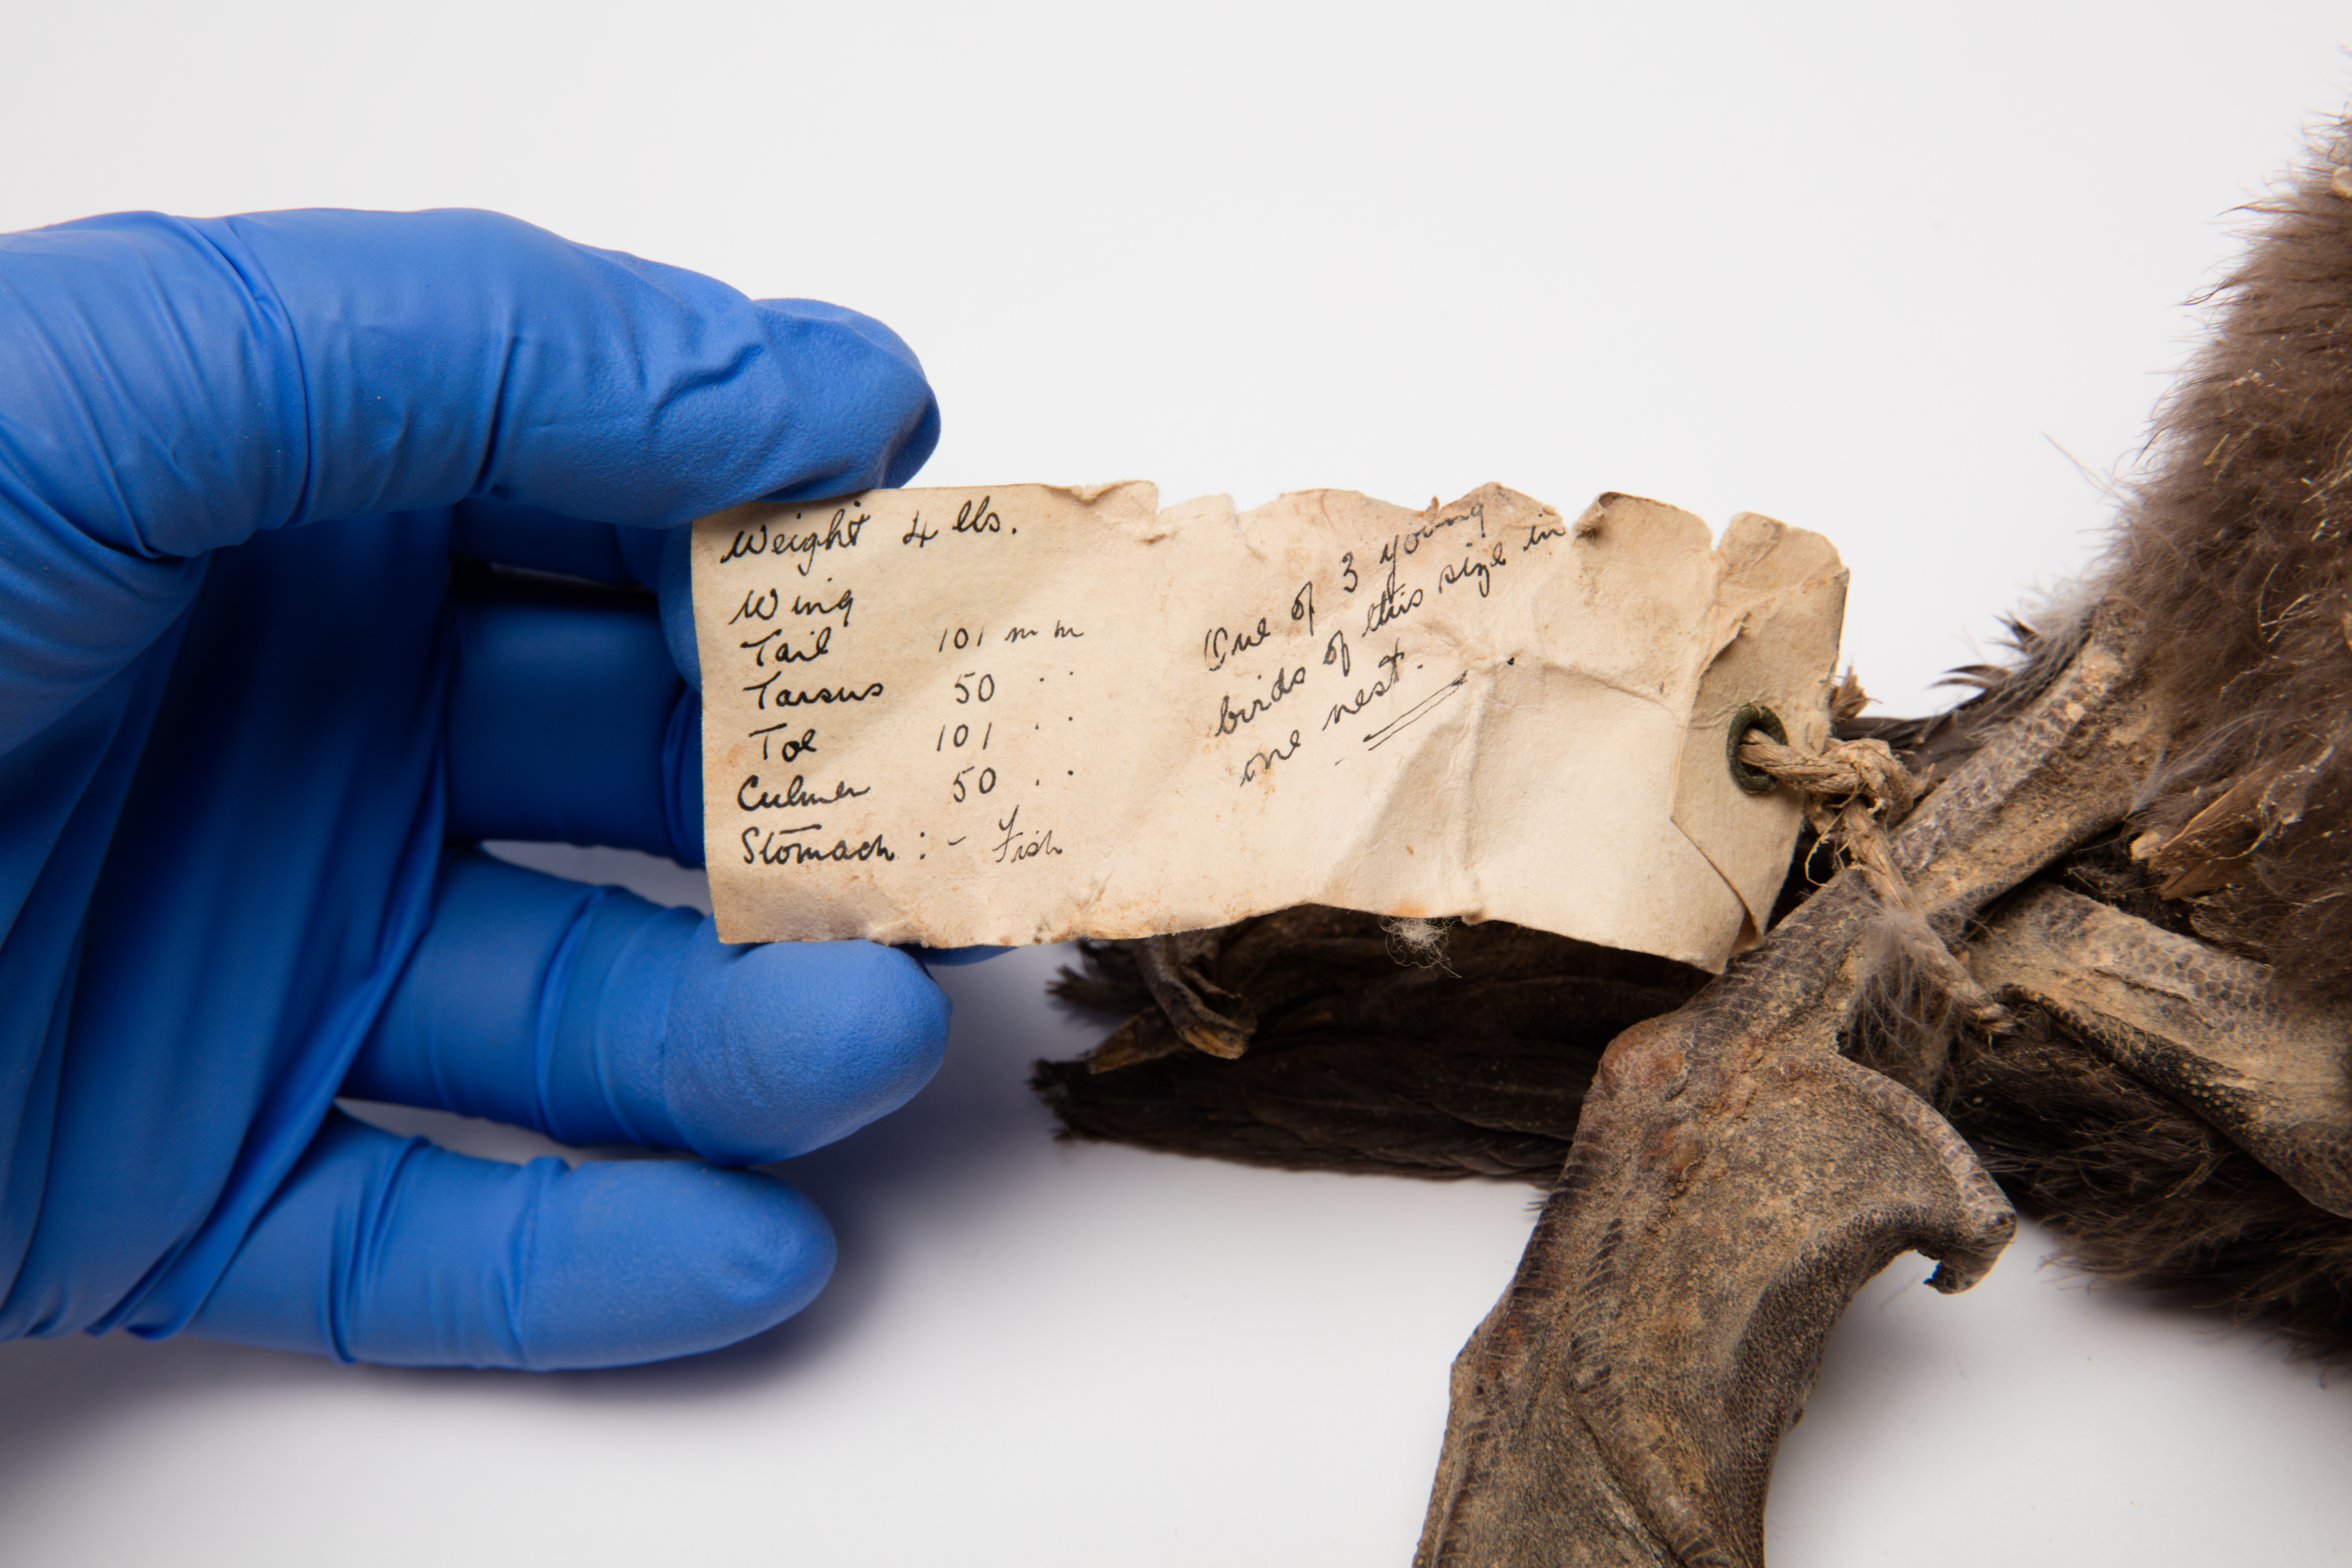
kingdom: Animalia
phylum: Chordata
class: Aves
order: Suliformes
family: Phalacrocoracidae
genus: Leucocarbo
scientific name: Leucocarbo verrucosus
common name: Kerguelen shag
